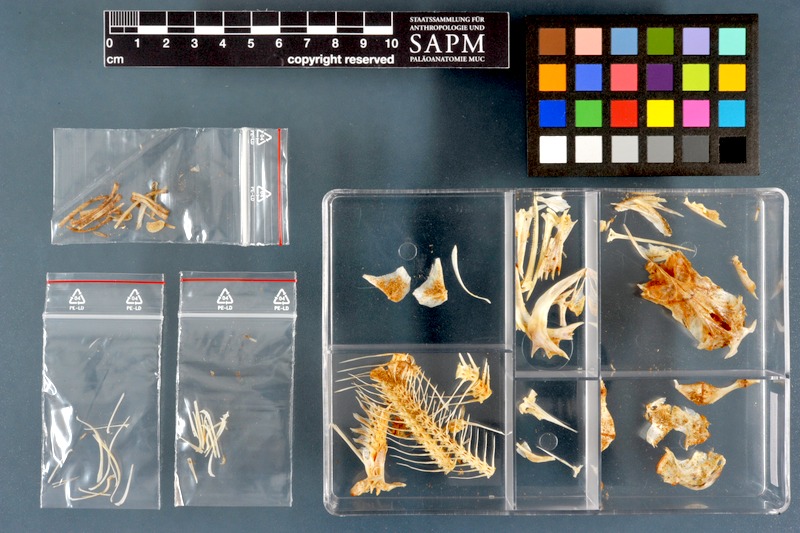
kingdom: Animalia
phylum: Chordata
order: Siluriformes
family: Schilbeidae
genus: Schilbe
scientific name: Schilbe mystus
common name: Silver catfish
